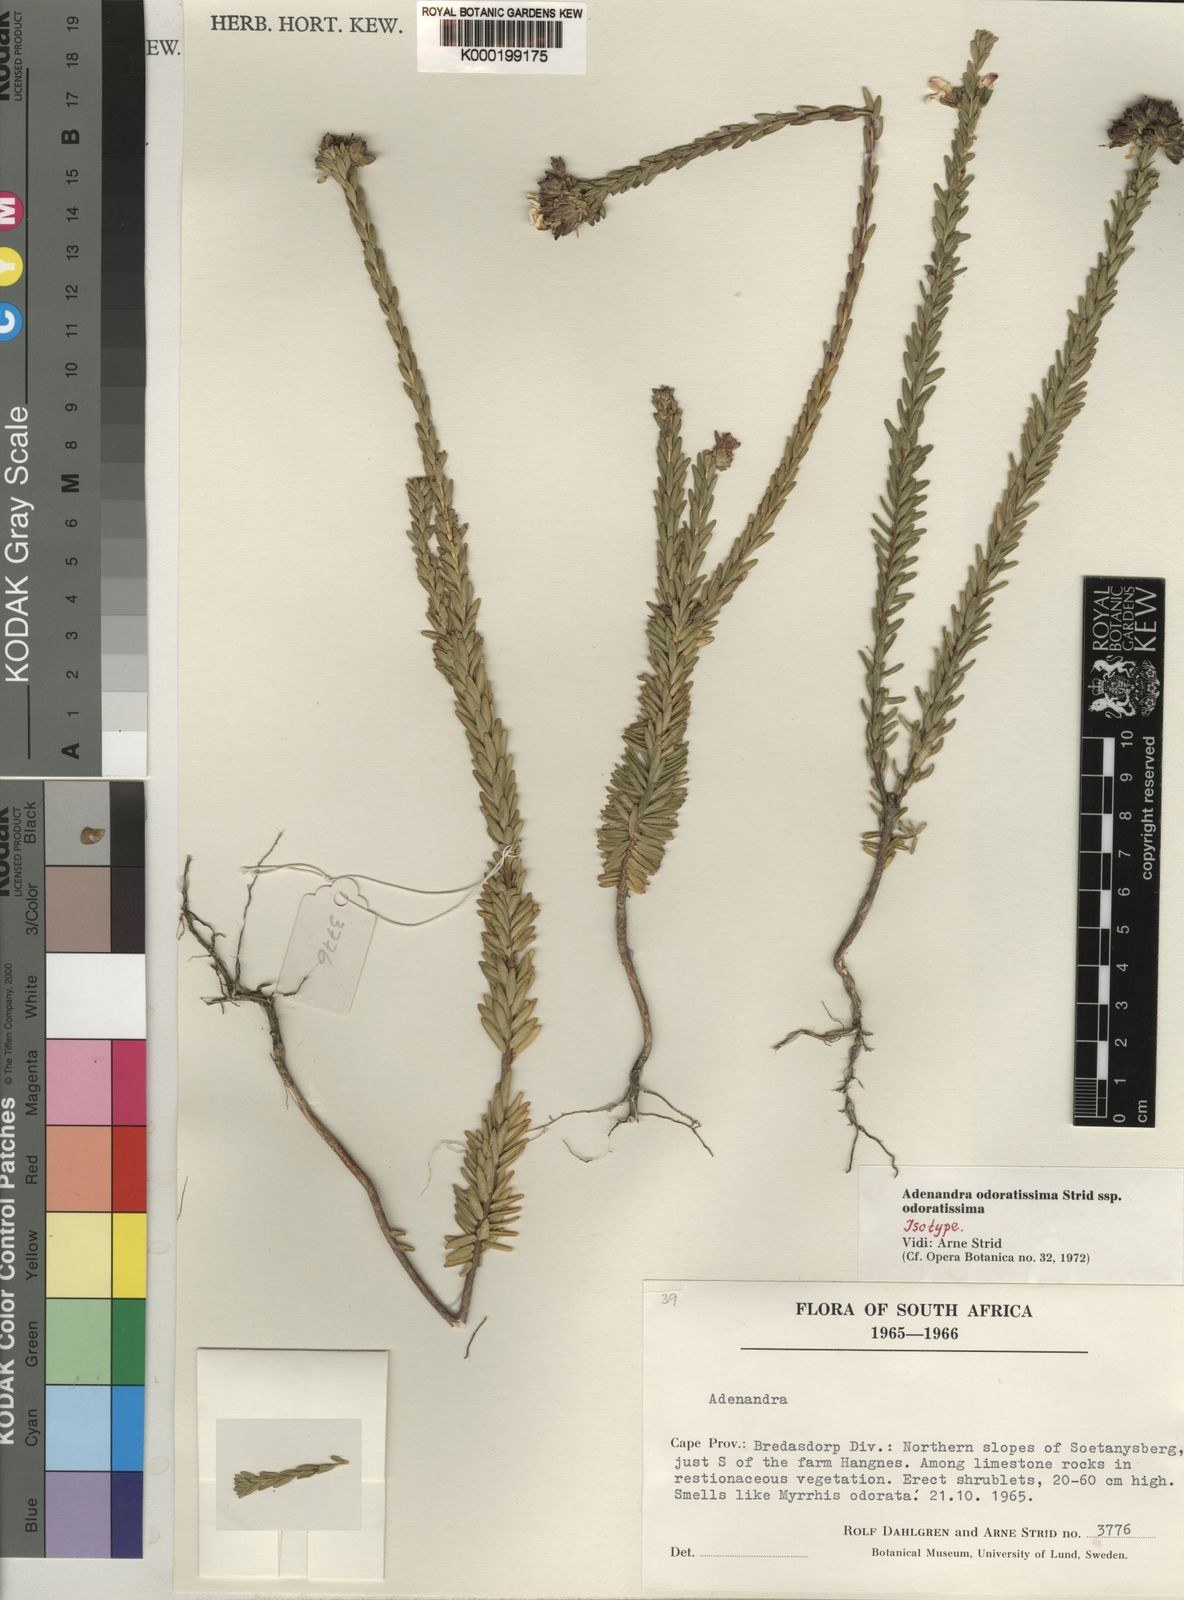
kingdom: Plantae
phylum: Tracheophyta
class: Magnoliopsida
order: Sapindales
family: Rutaceae
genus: Adenandra
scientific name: Adenandra odoratissima
